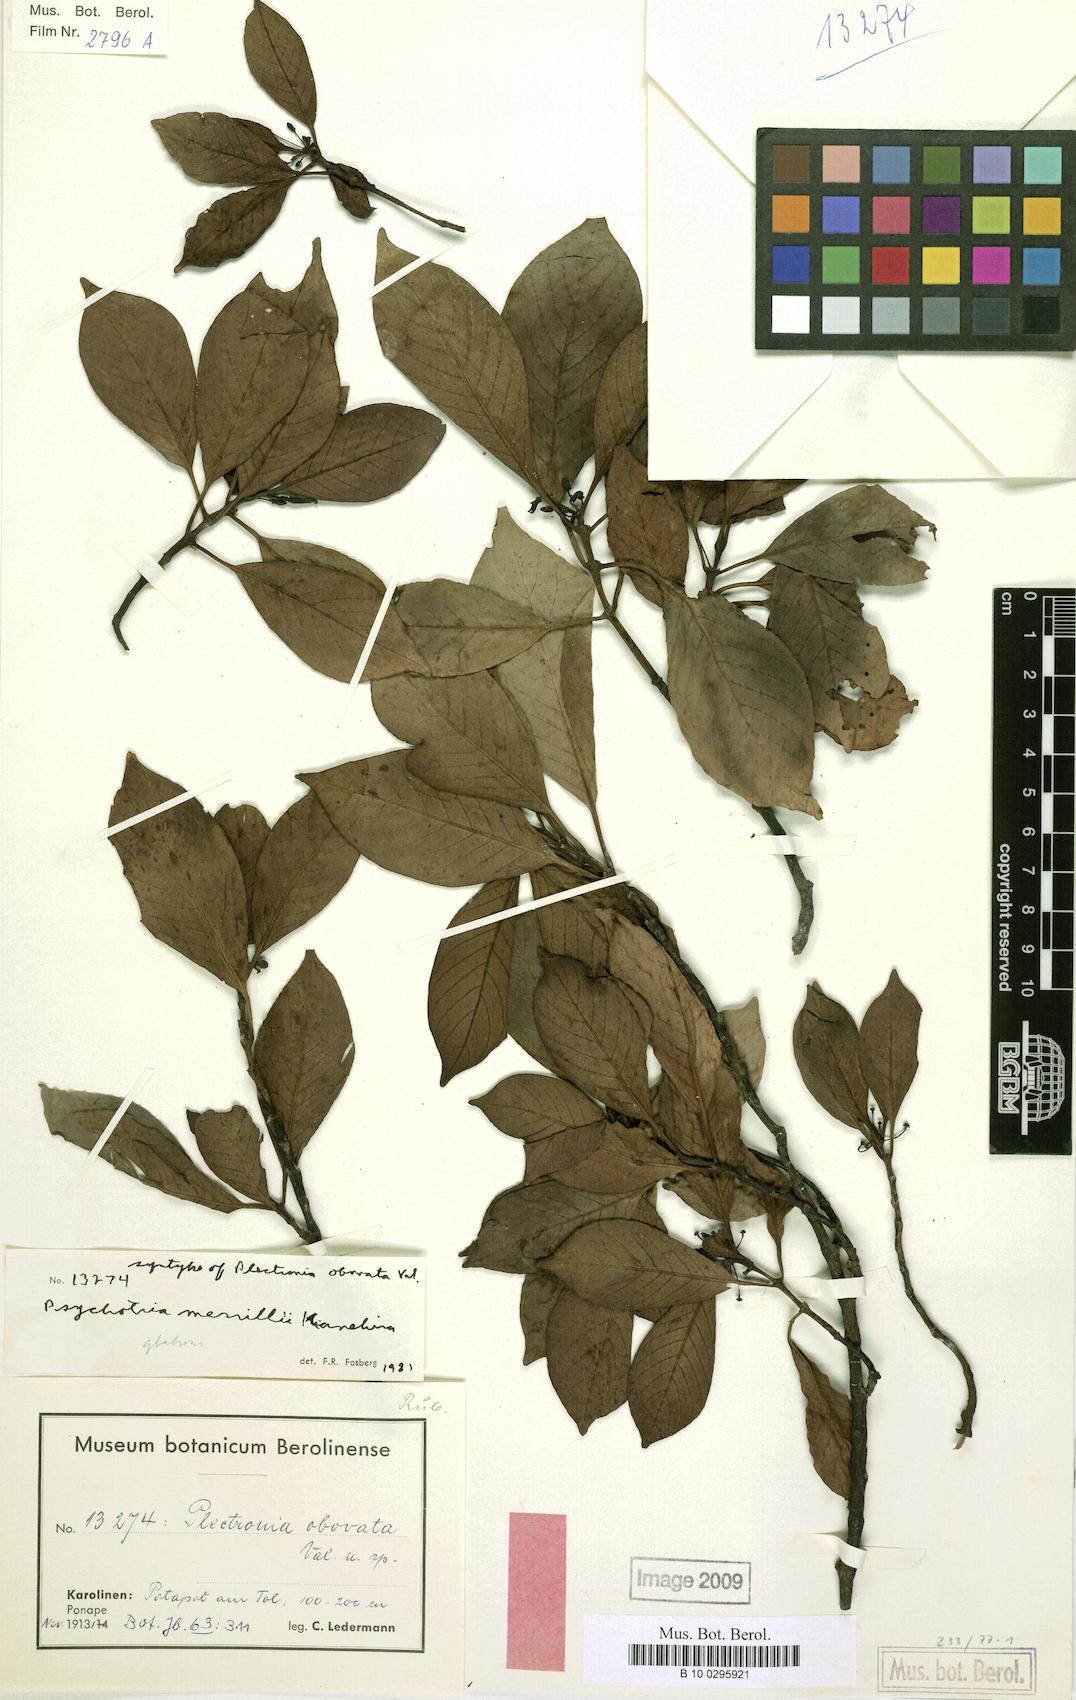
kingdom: Plantae
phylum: Tracheophyta
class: Magnoliopsida
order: Gentianales
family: Rubiaceae
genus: Psychotria
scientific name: Psychotria merrillii
